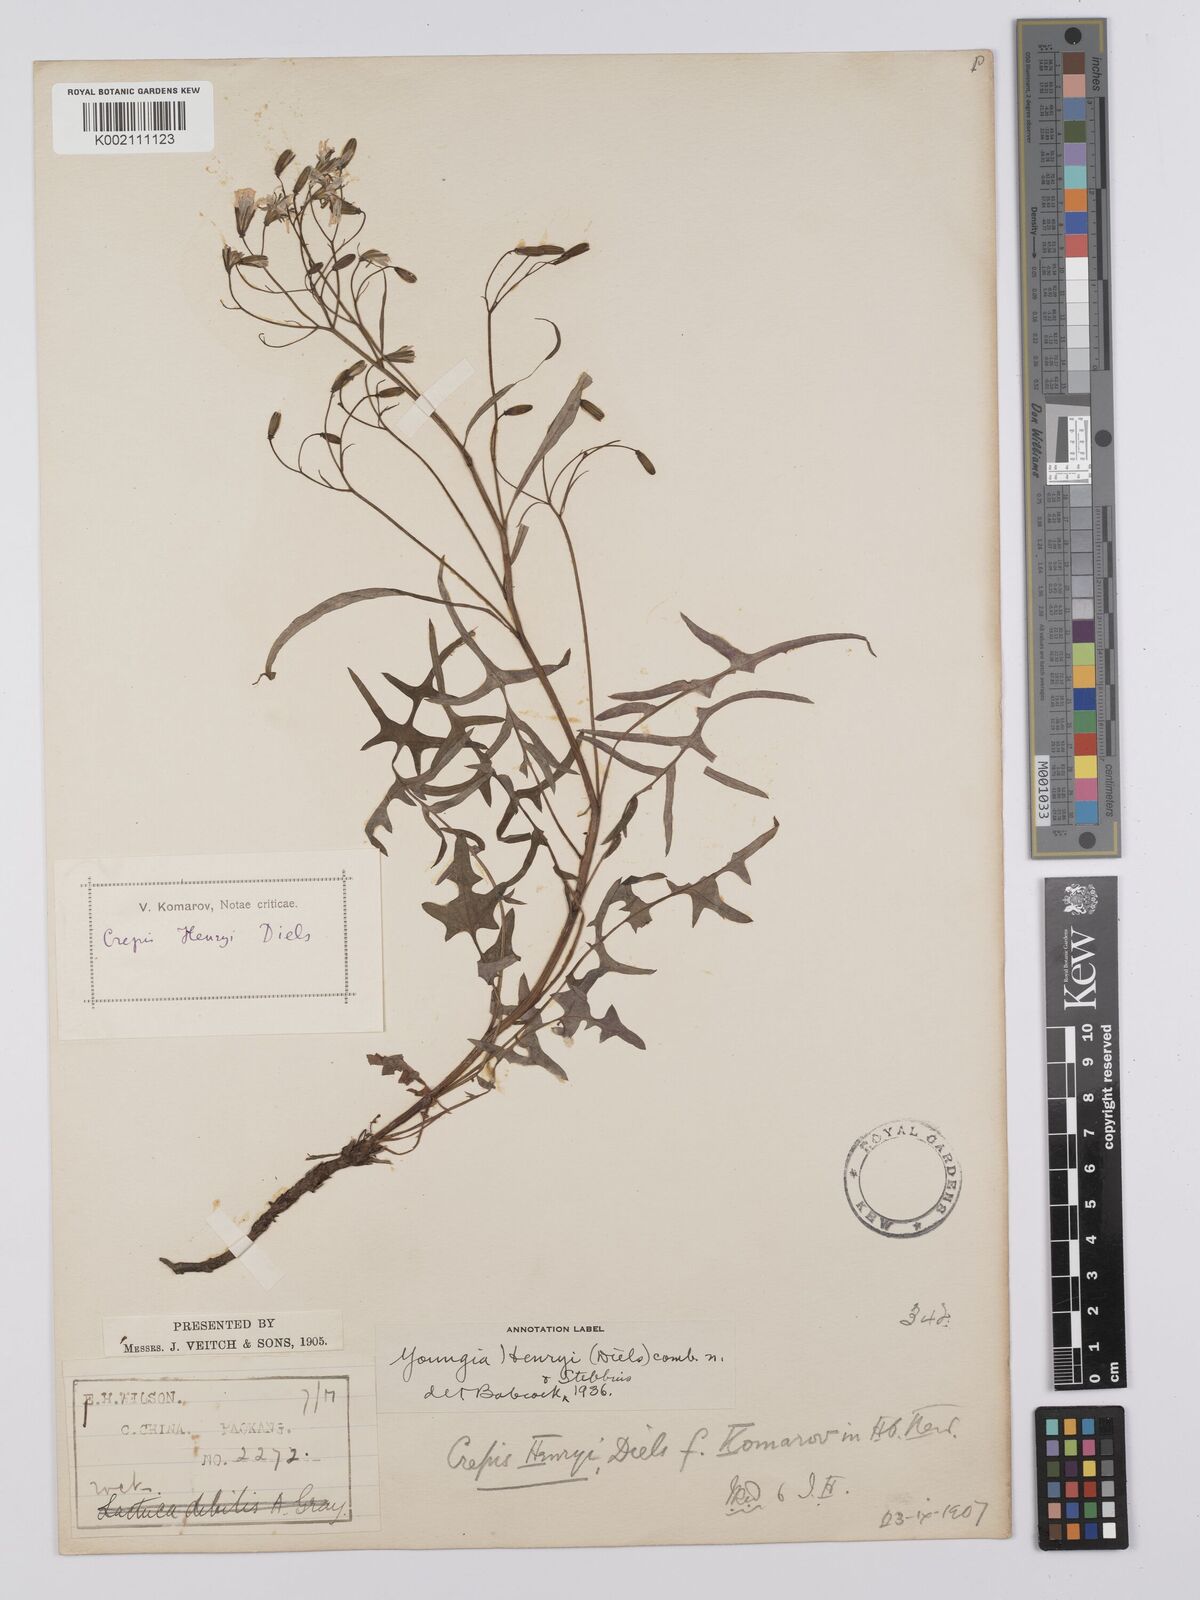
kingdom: Plantae
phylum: Tracheophyta
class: Magnoliopsida
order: Asterales
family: Asteraceae
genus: Youngia
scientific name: Youngia henryi
